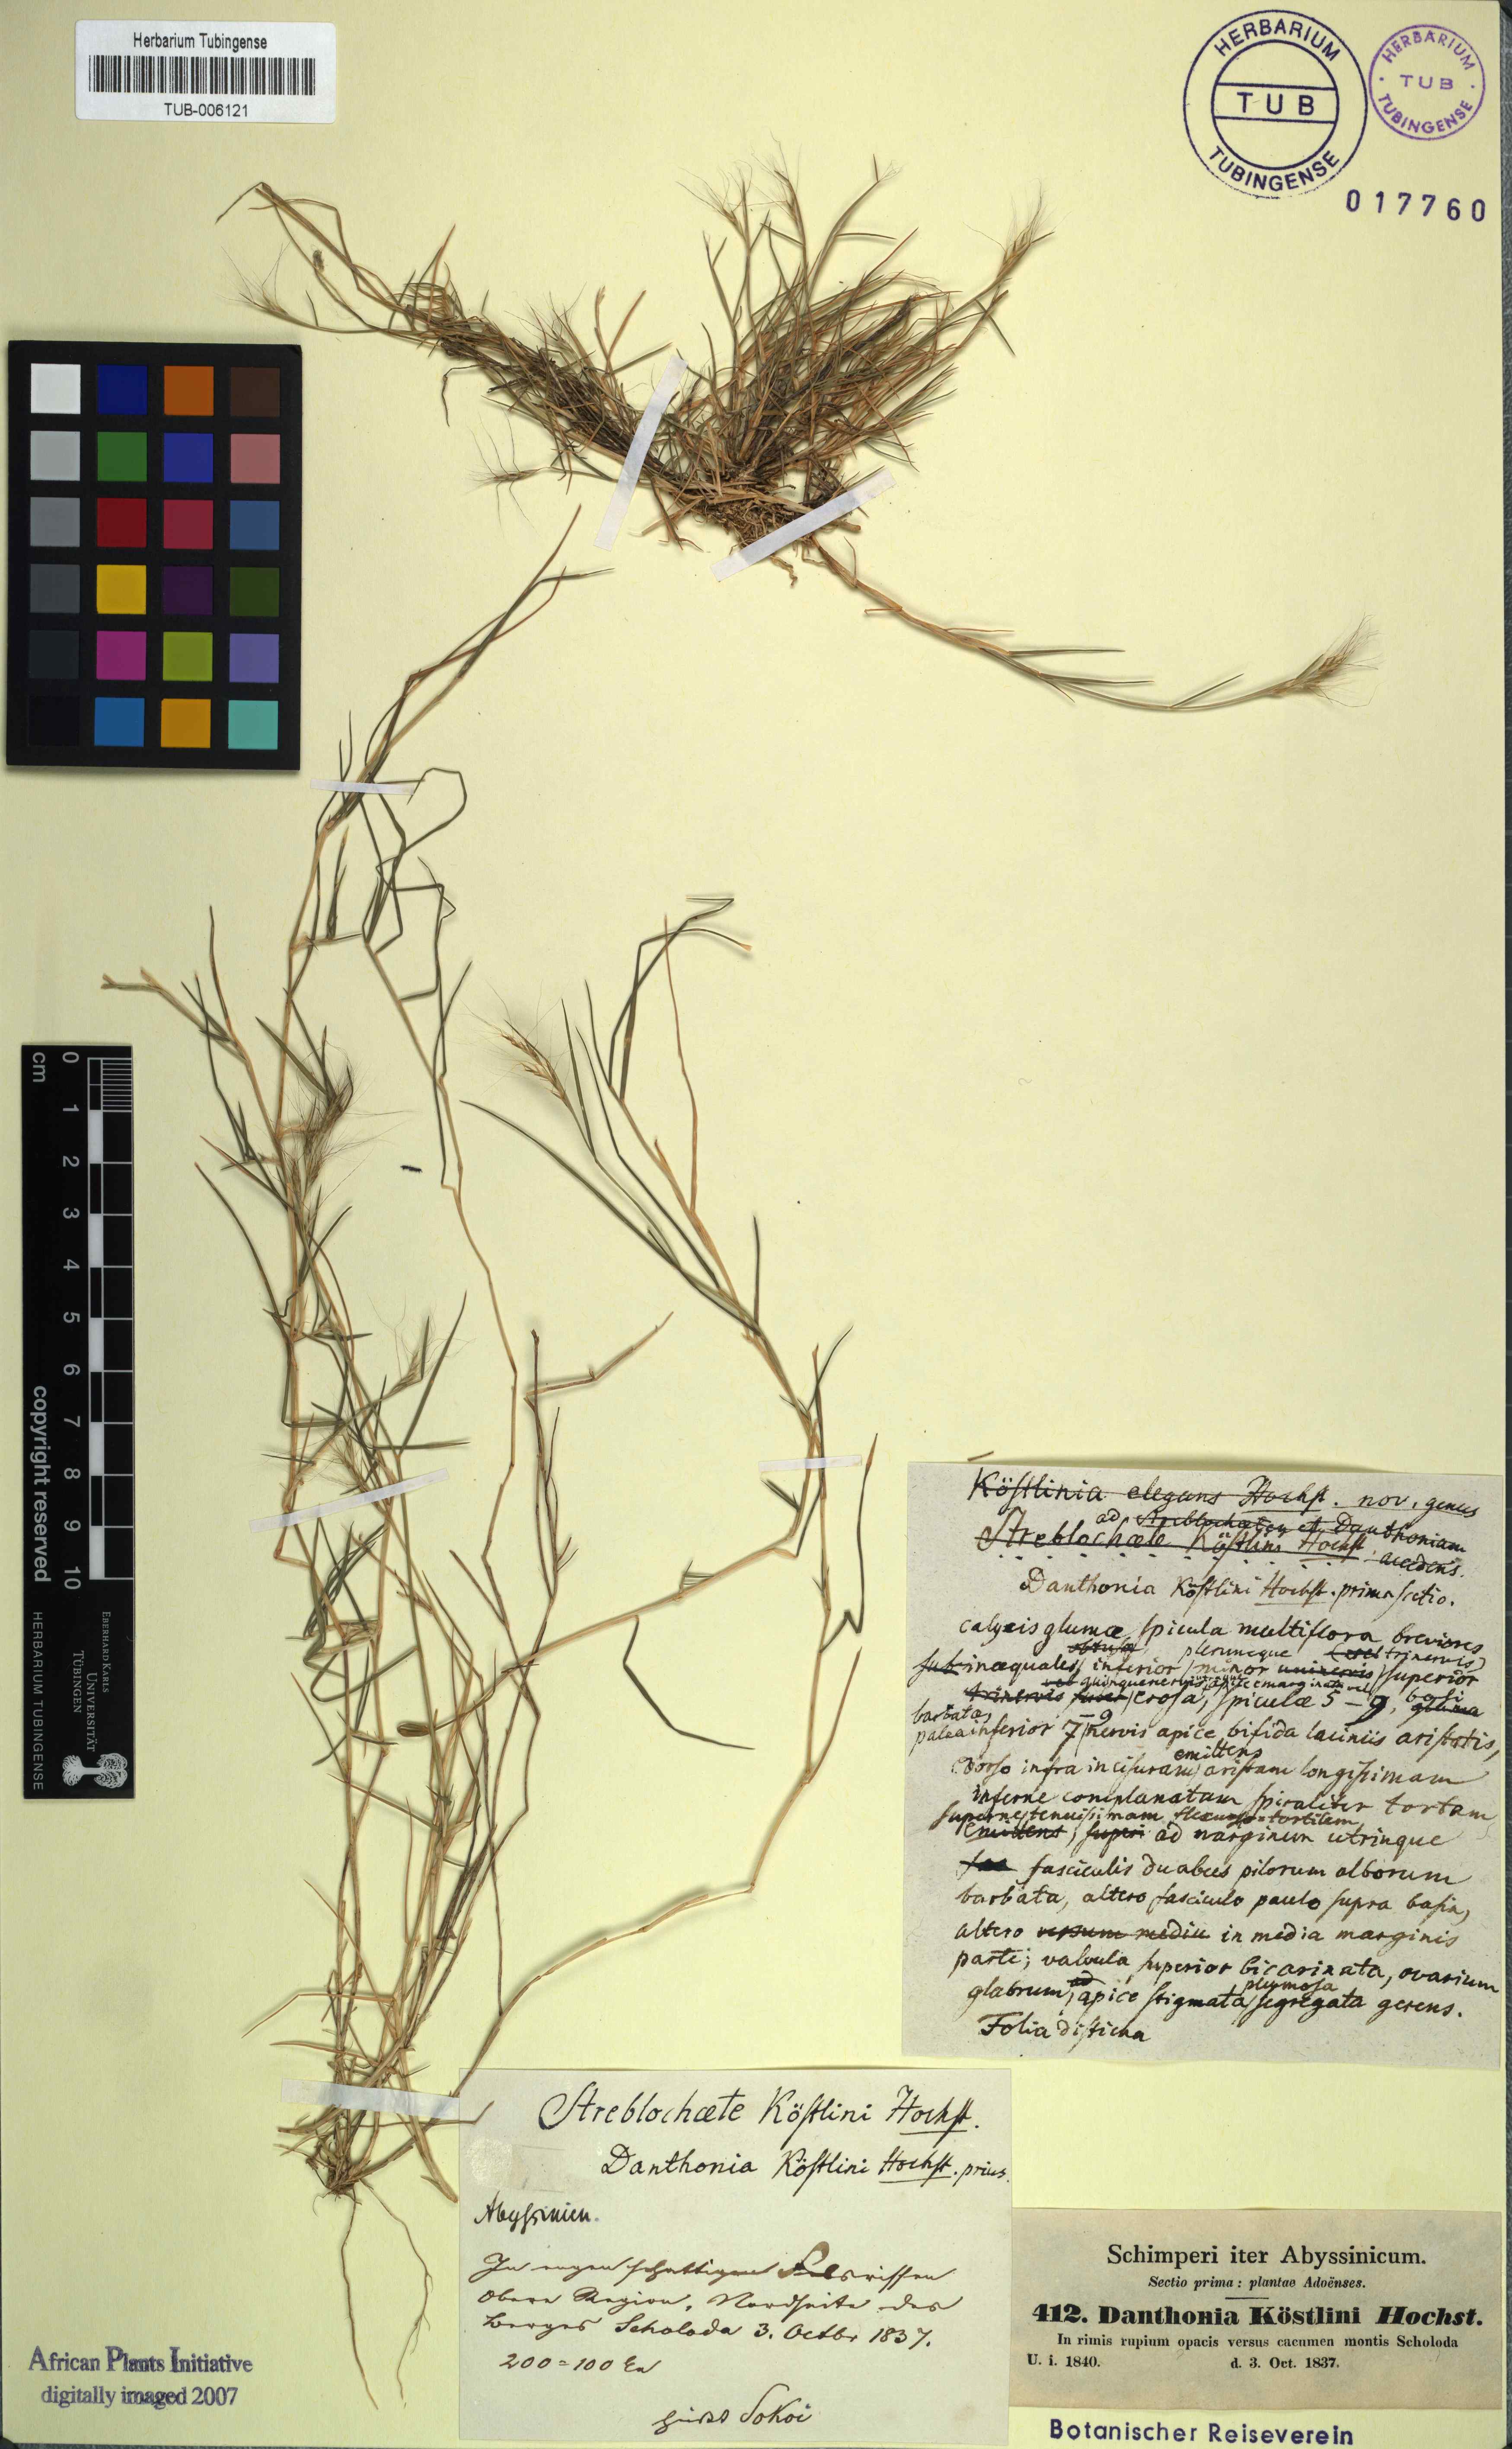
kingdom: Plantae
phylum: Tracheophyta
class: Liliopsida
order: Poales
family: Poaceae
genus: Koordersiochloa
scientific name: Koordersiochloa longiarista
